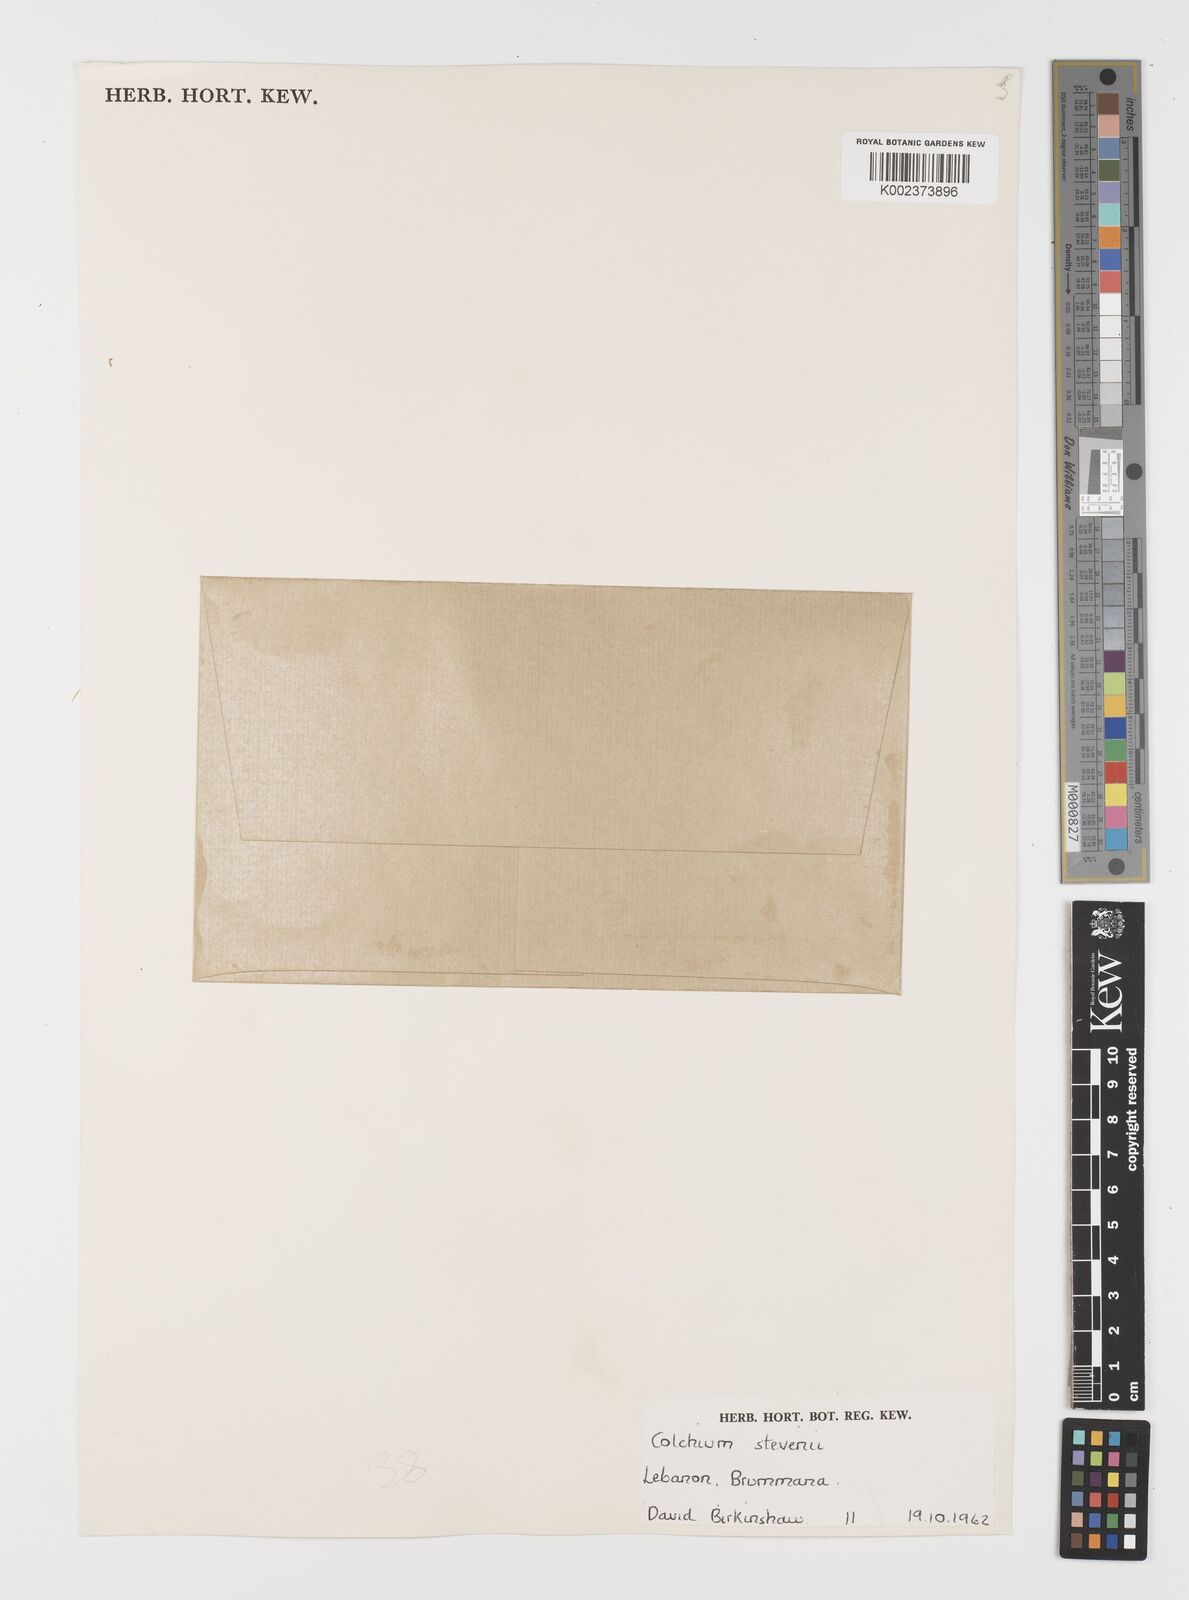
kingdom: Plantae
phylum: Tracheophyta
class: Liliopsida
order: Liliales
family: Colchicaceae
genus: Colchicum
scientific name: Colchicum stevenii
